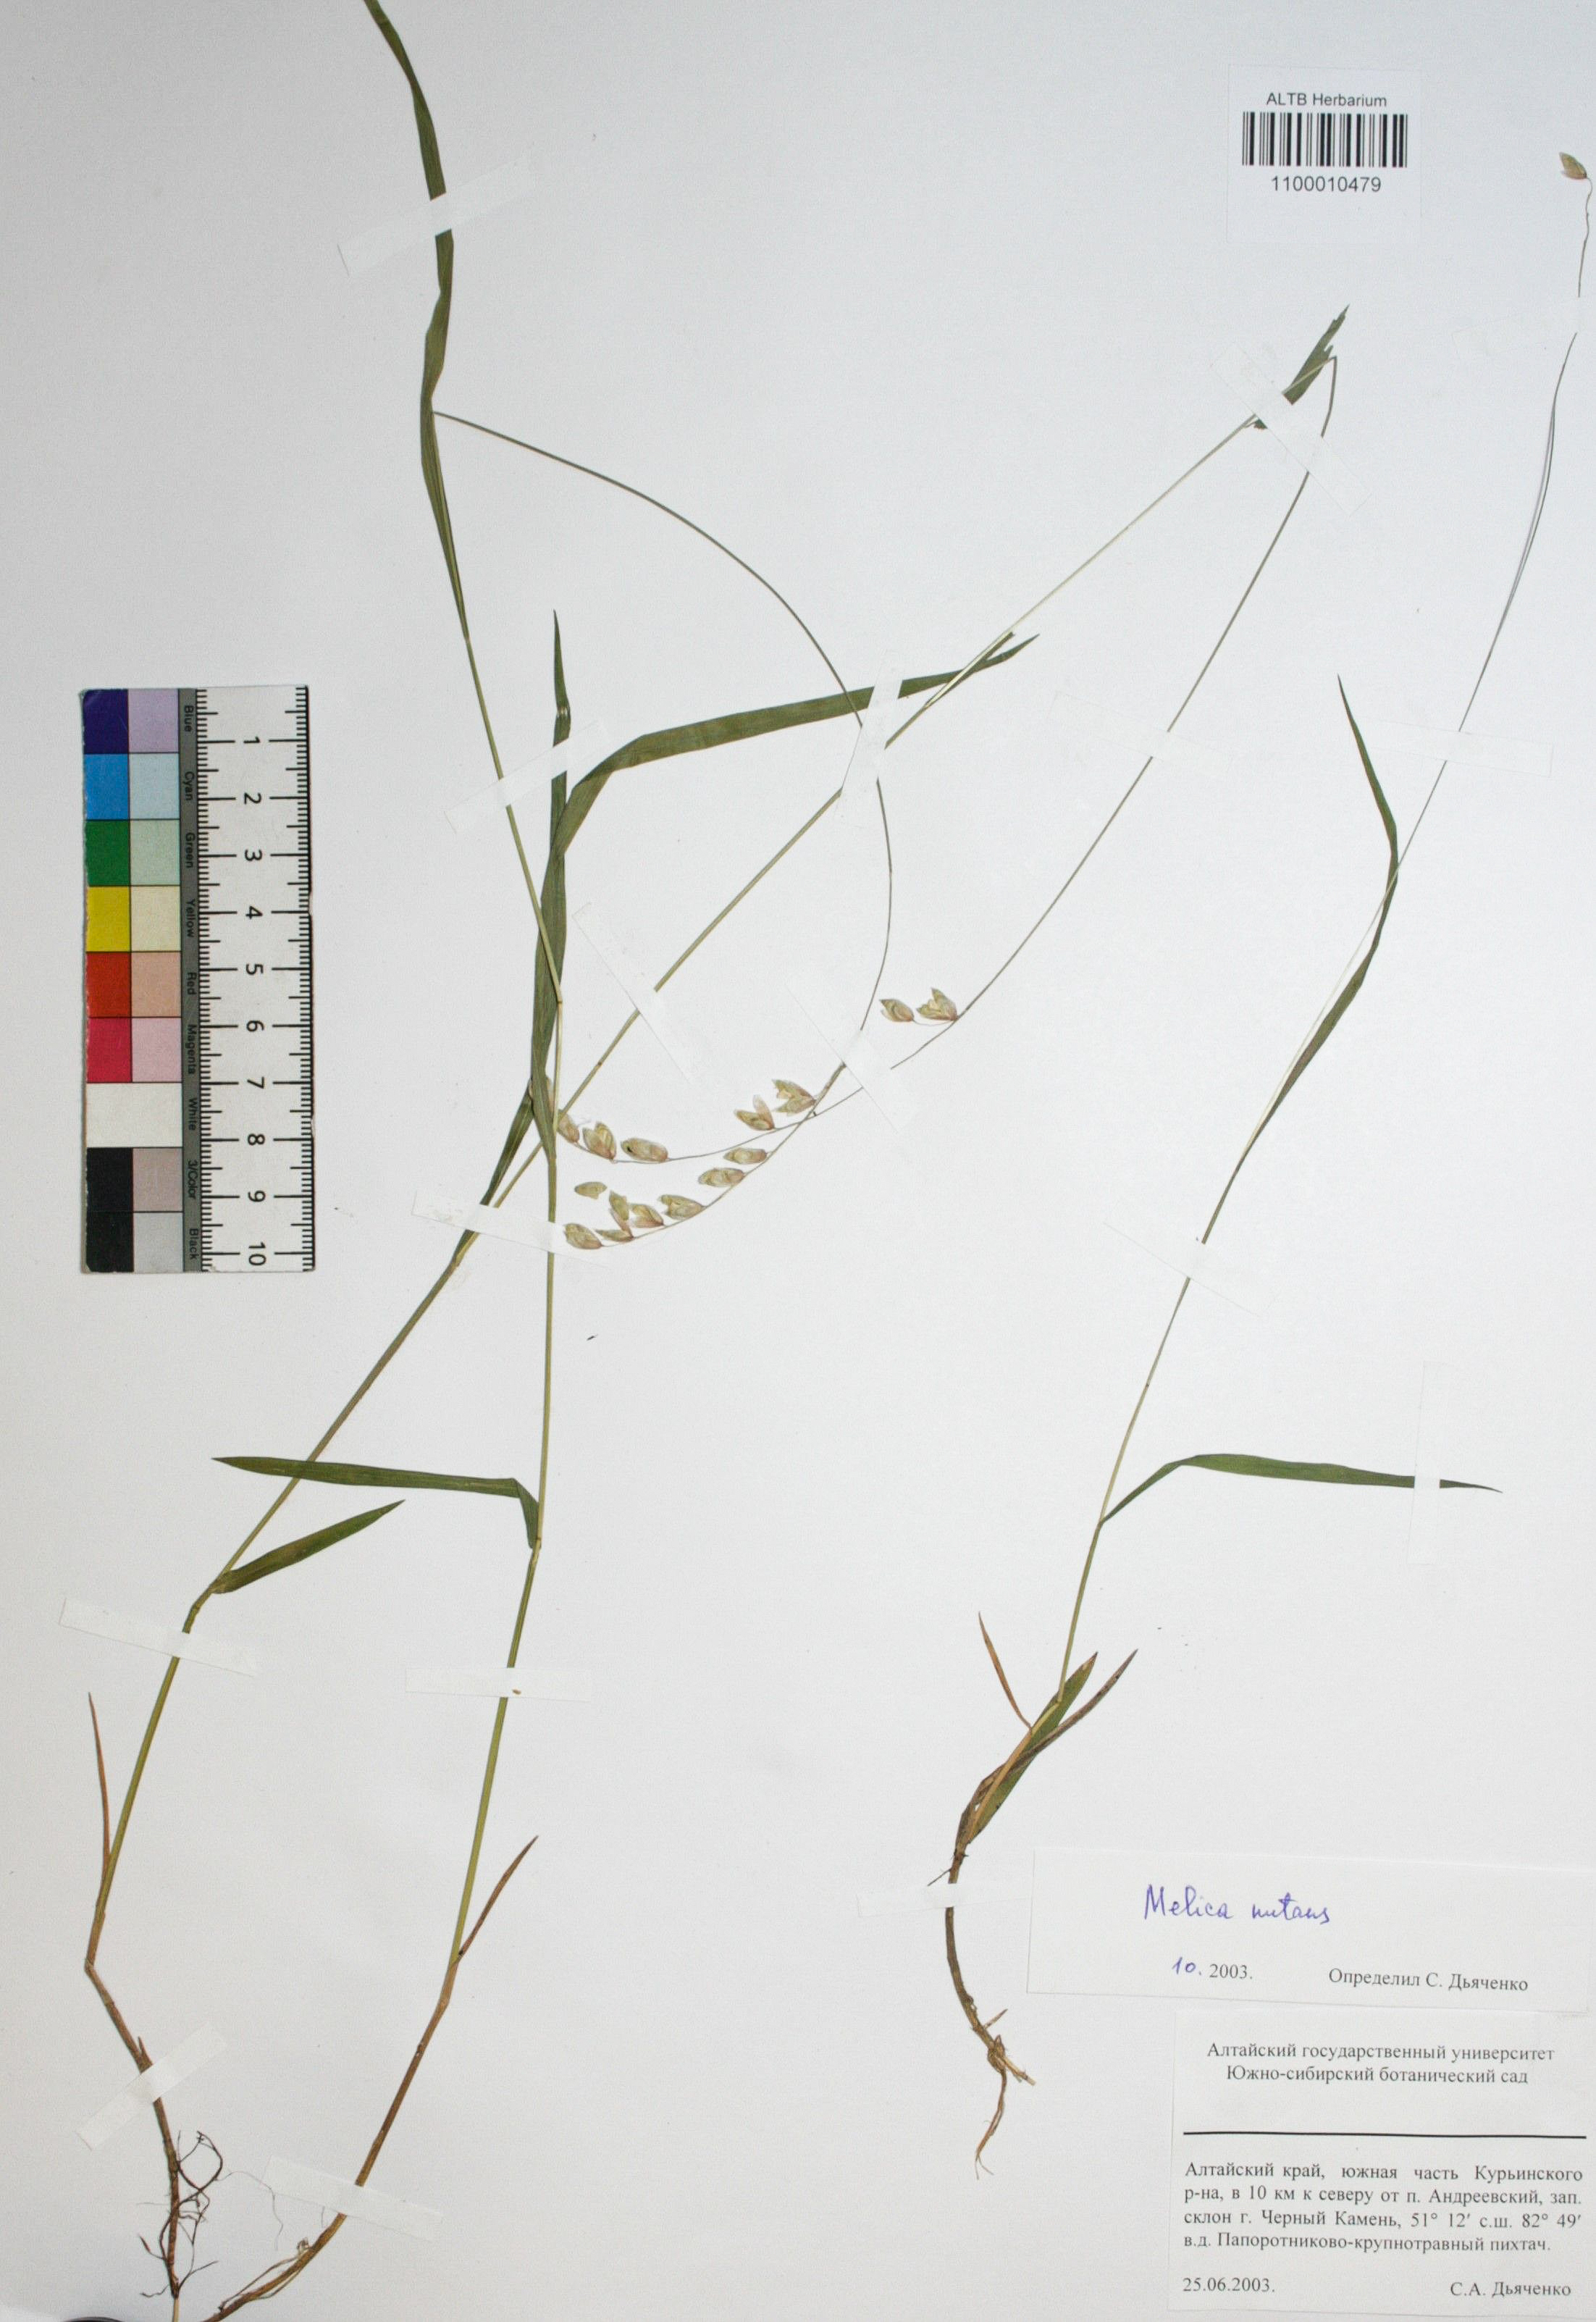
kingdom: Plantae
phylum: Tracheophyta
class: Liliopsida
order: Poales
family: Poaceae
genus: Melica
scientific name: Melica nutans
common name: Mountain melick
